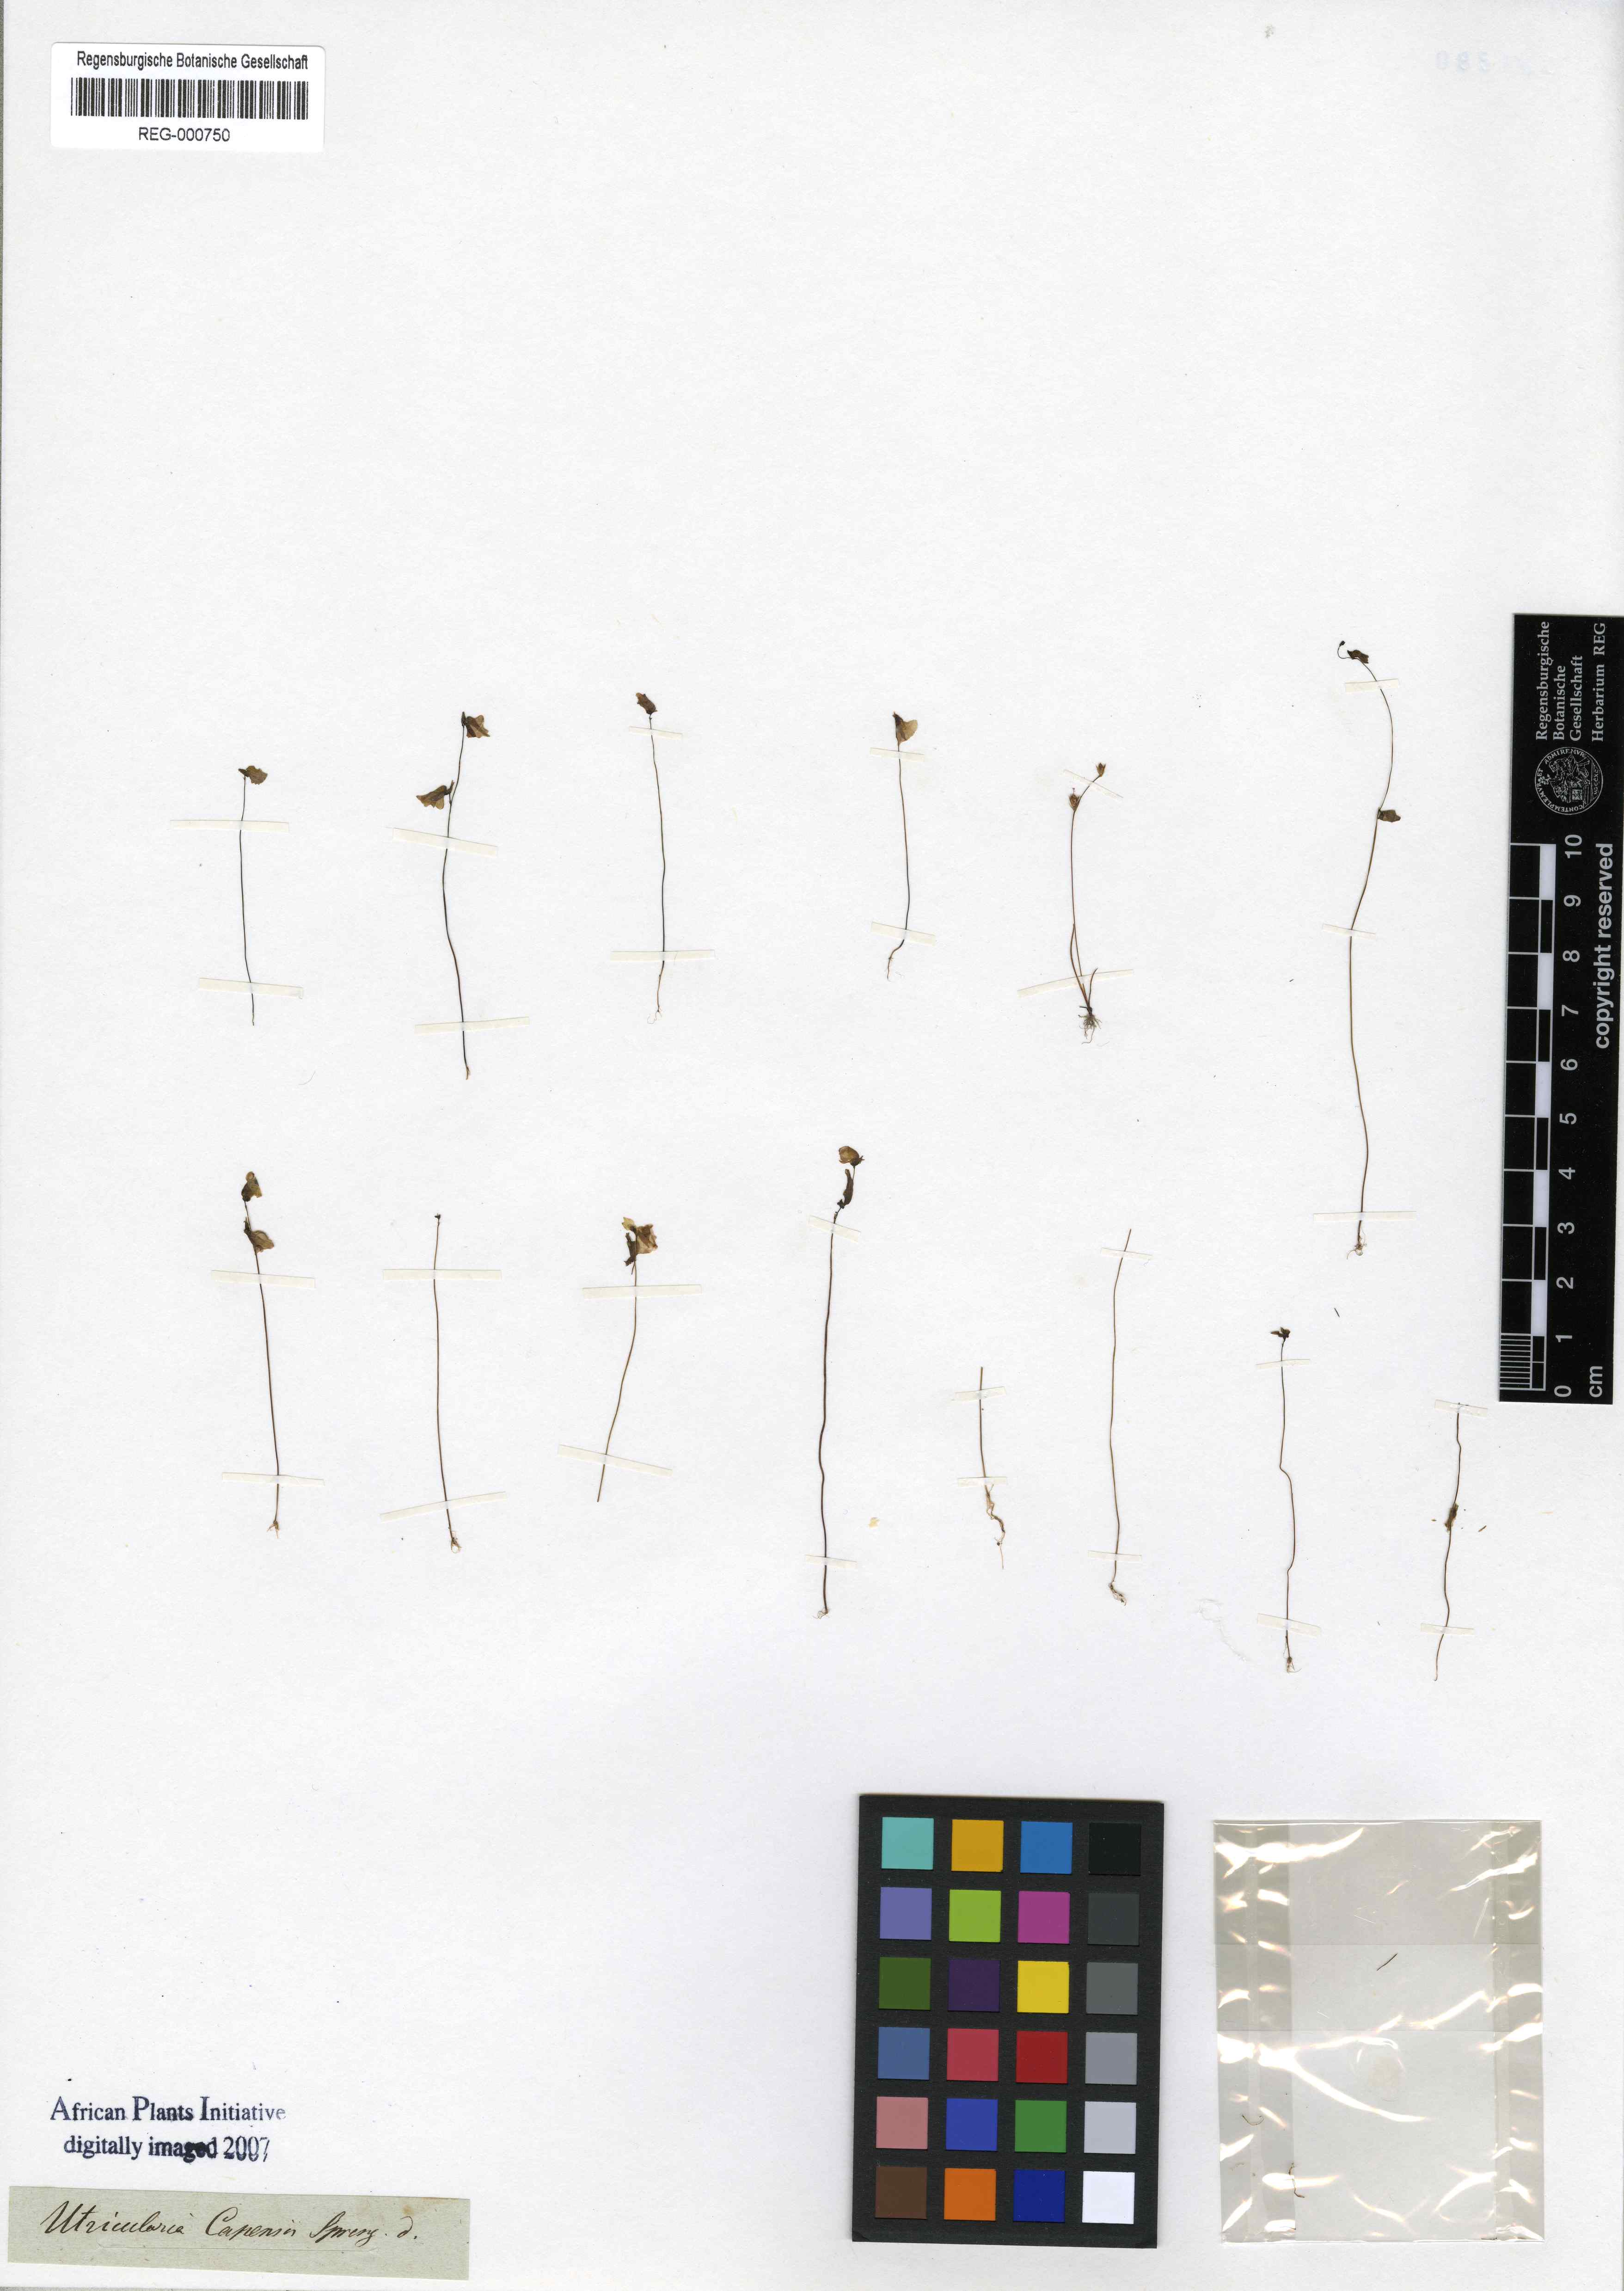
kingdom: Plantae
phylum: Tracheophyta
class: Magnoliopsida
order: Lamiales
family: Lentibulariaceae
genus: Utricularia
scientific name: Utricularia bisquamata
